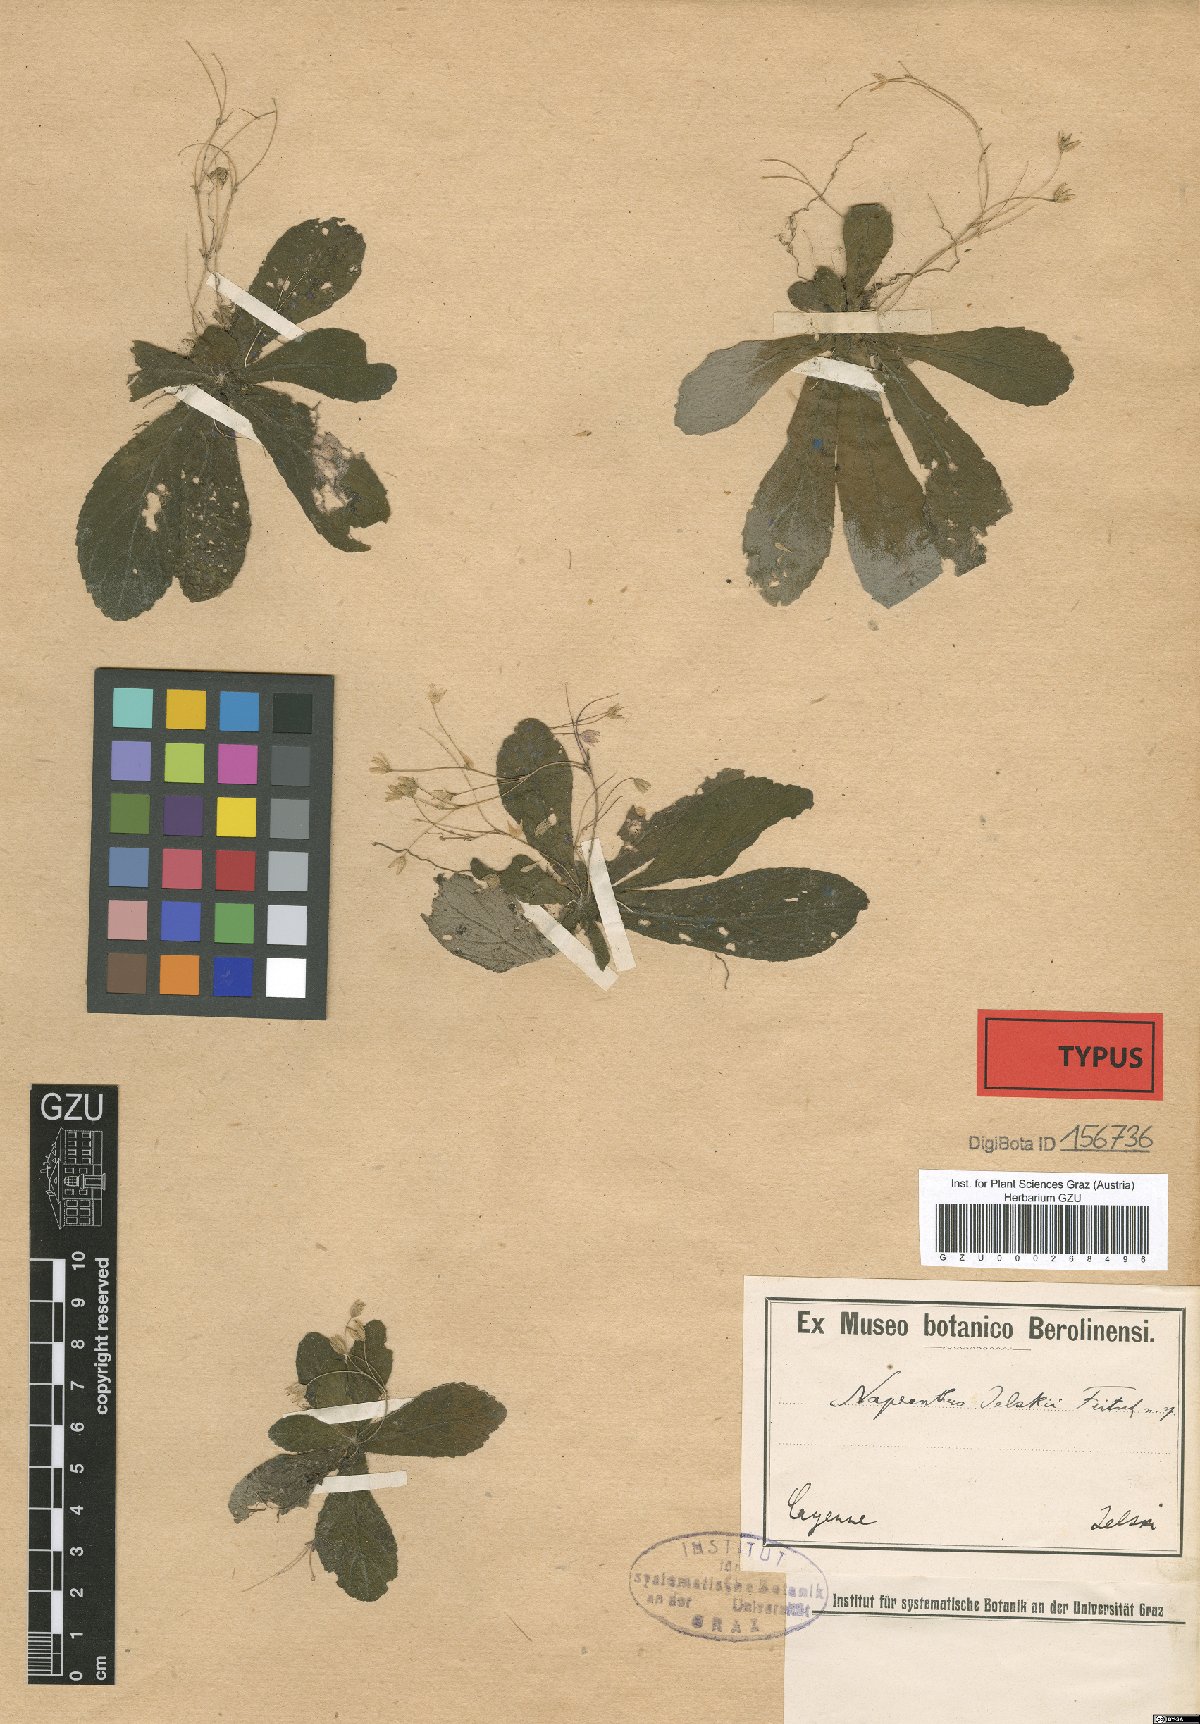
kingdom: Plantae
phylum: Tracheophyta
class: Magnoliopsida
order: Lamiales
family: Gesneriaceae
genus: Napeanthus
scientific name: Napeanthus jelskii
